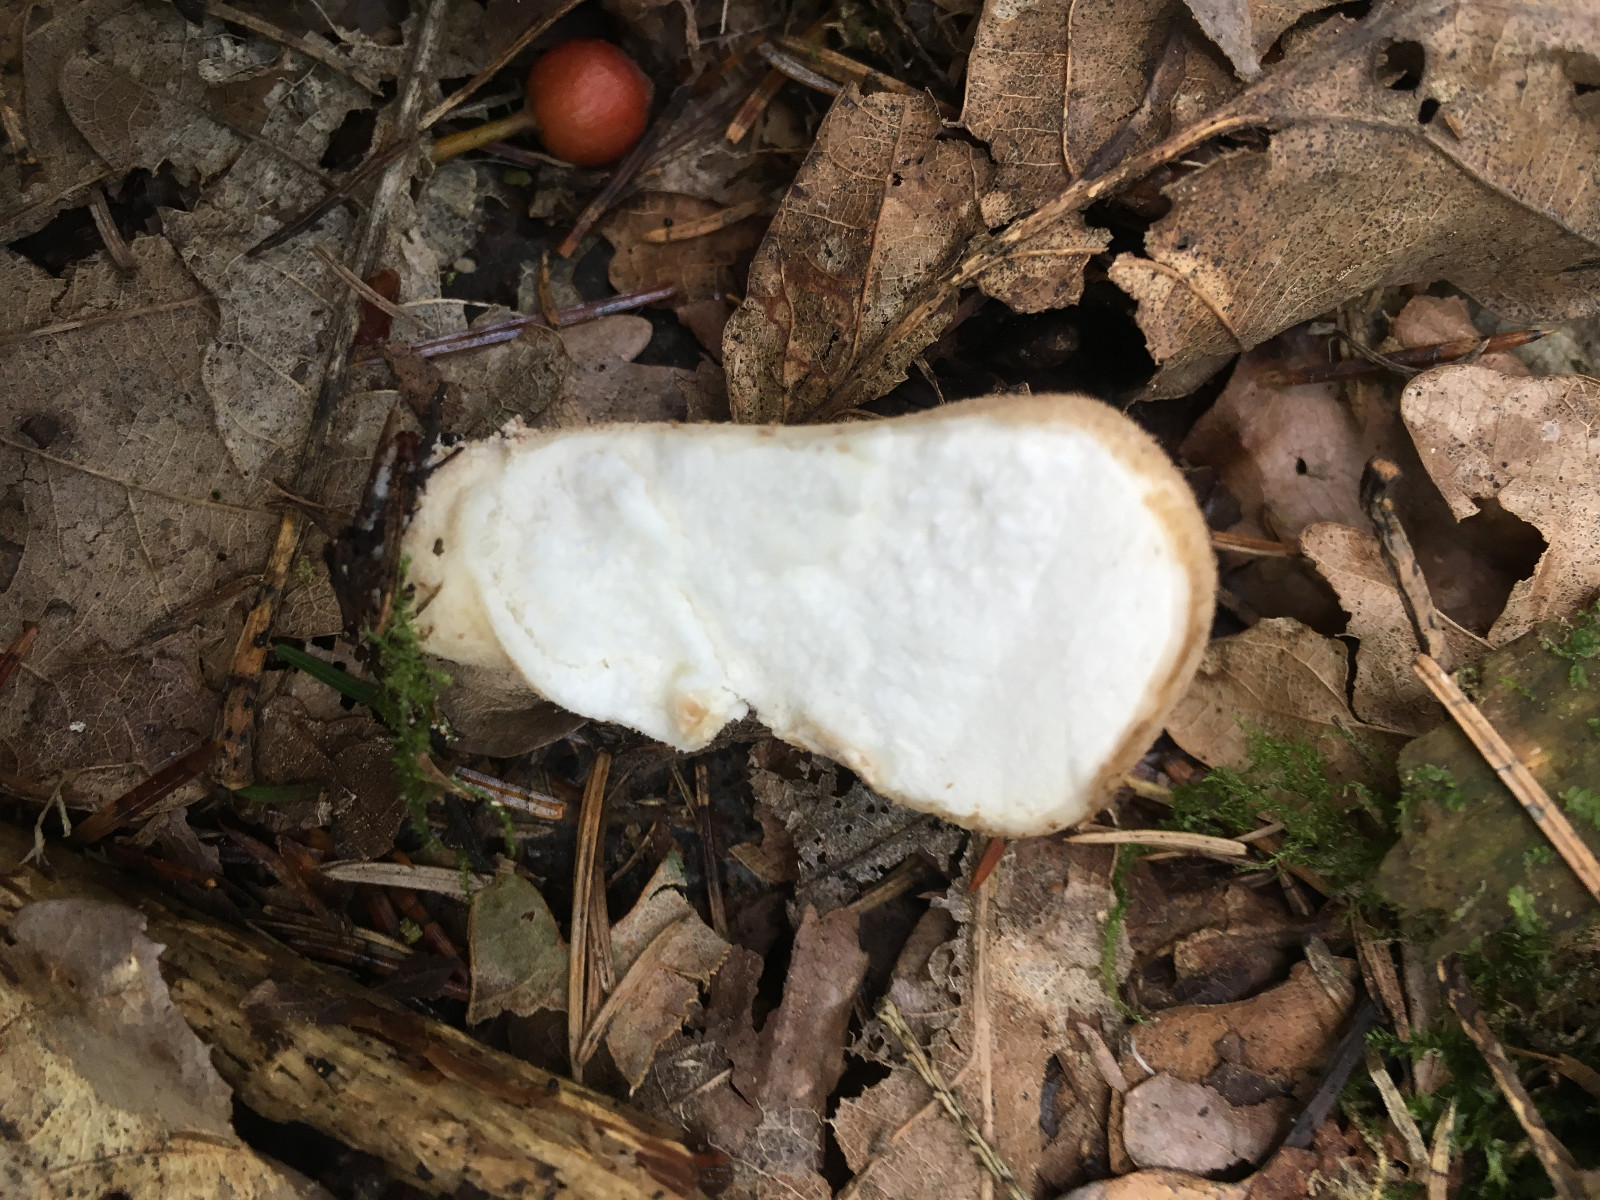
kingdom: Fungi
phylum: Basidiomycota
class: Agaricomycetes
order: Agaricales
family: Lycoperdaceae
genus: Apioperdon
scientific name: Apioperdon pyriforme
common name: pære-støvbold
